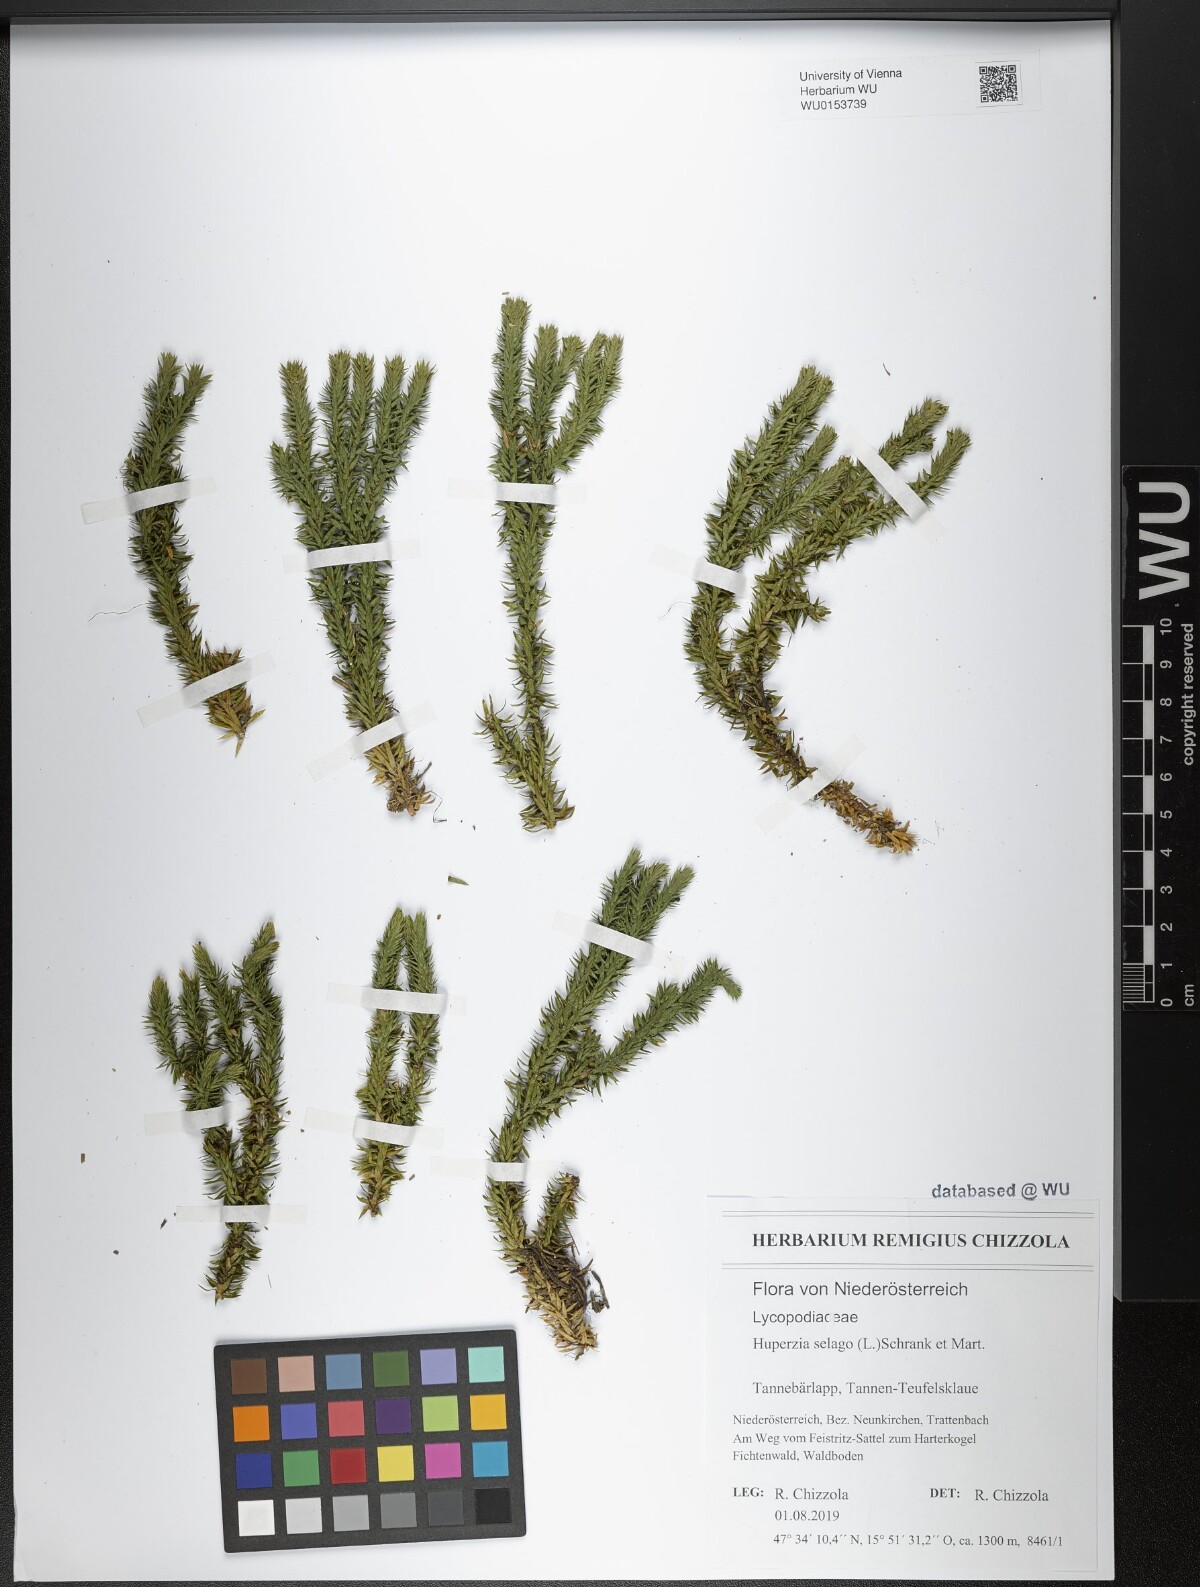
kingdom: Plantae
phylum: Tracheophyta
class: Lycopodiopsida
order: Lycopodiales
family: Lycopodiaceae
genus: Huperzia
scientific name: Huperzia selago
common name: Northern firmoss
